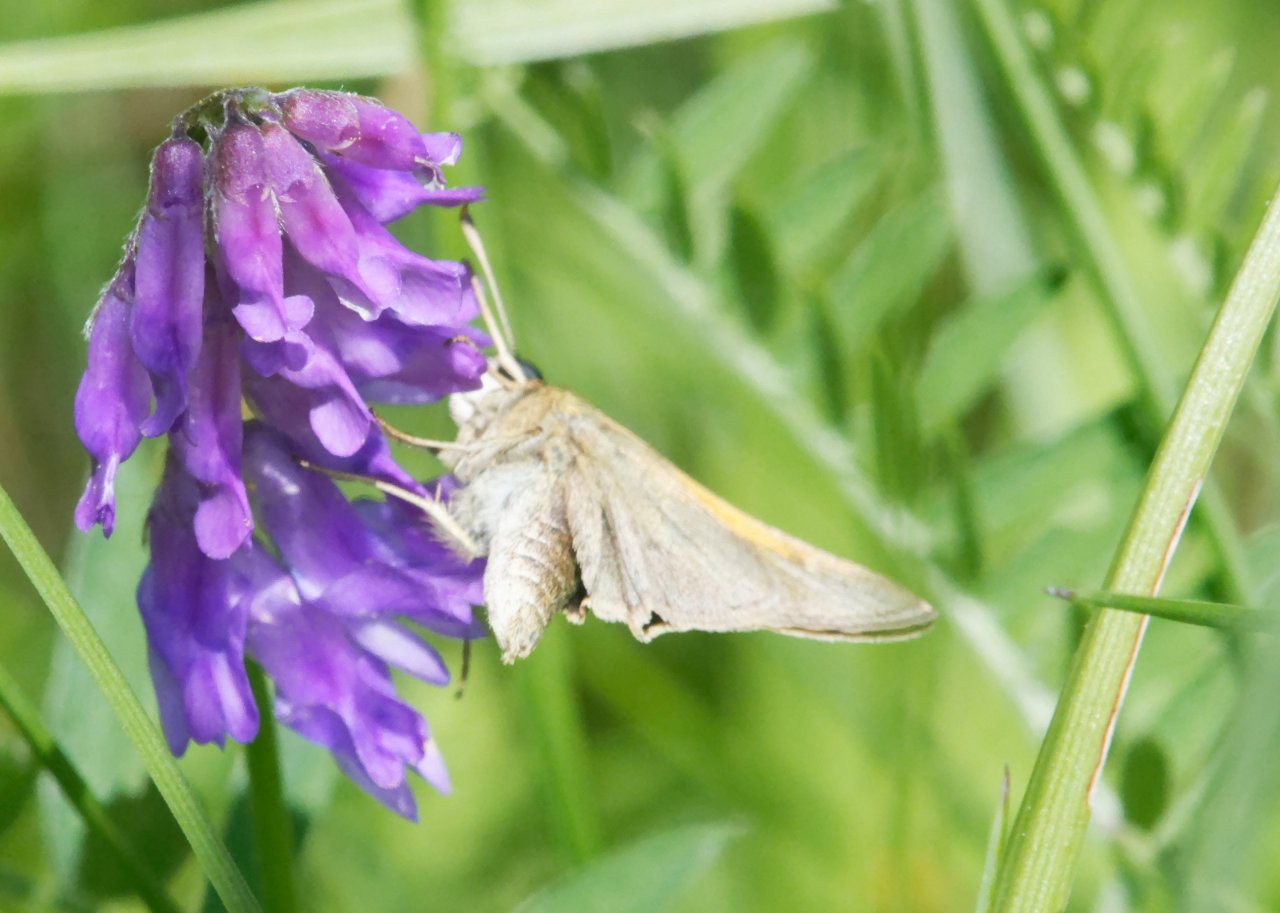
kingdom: Animalia
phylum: Arthropoda
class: Insecta
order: Lepidoptera
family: Hesperiidae
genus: Polites
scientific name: Polites themistocles
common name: Tawny-edged Skipper
